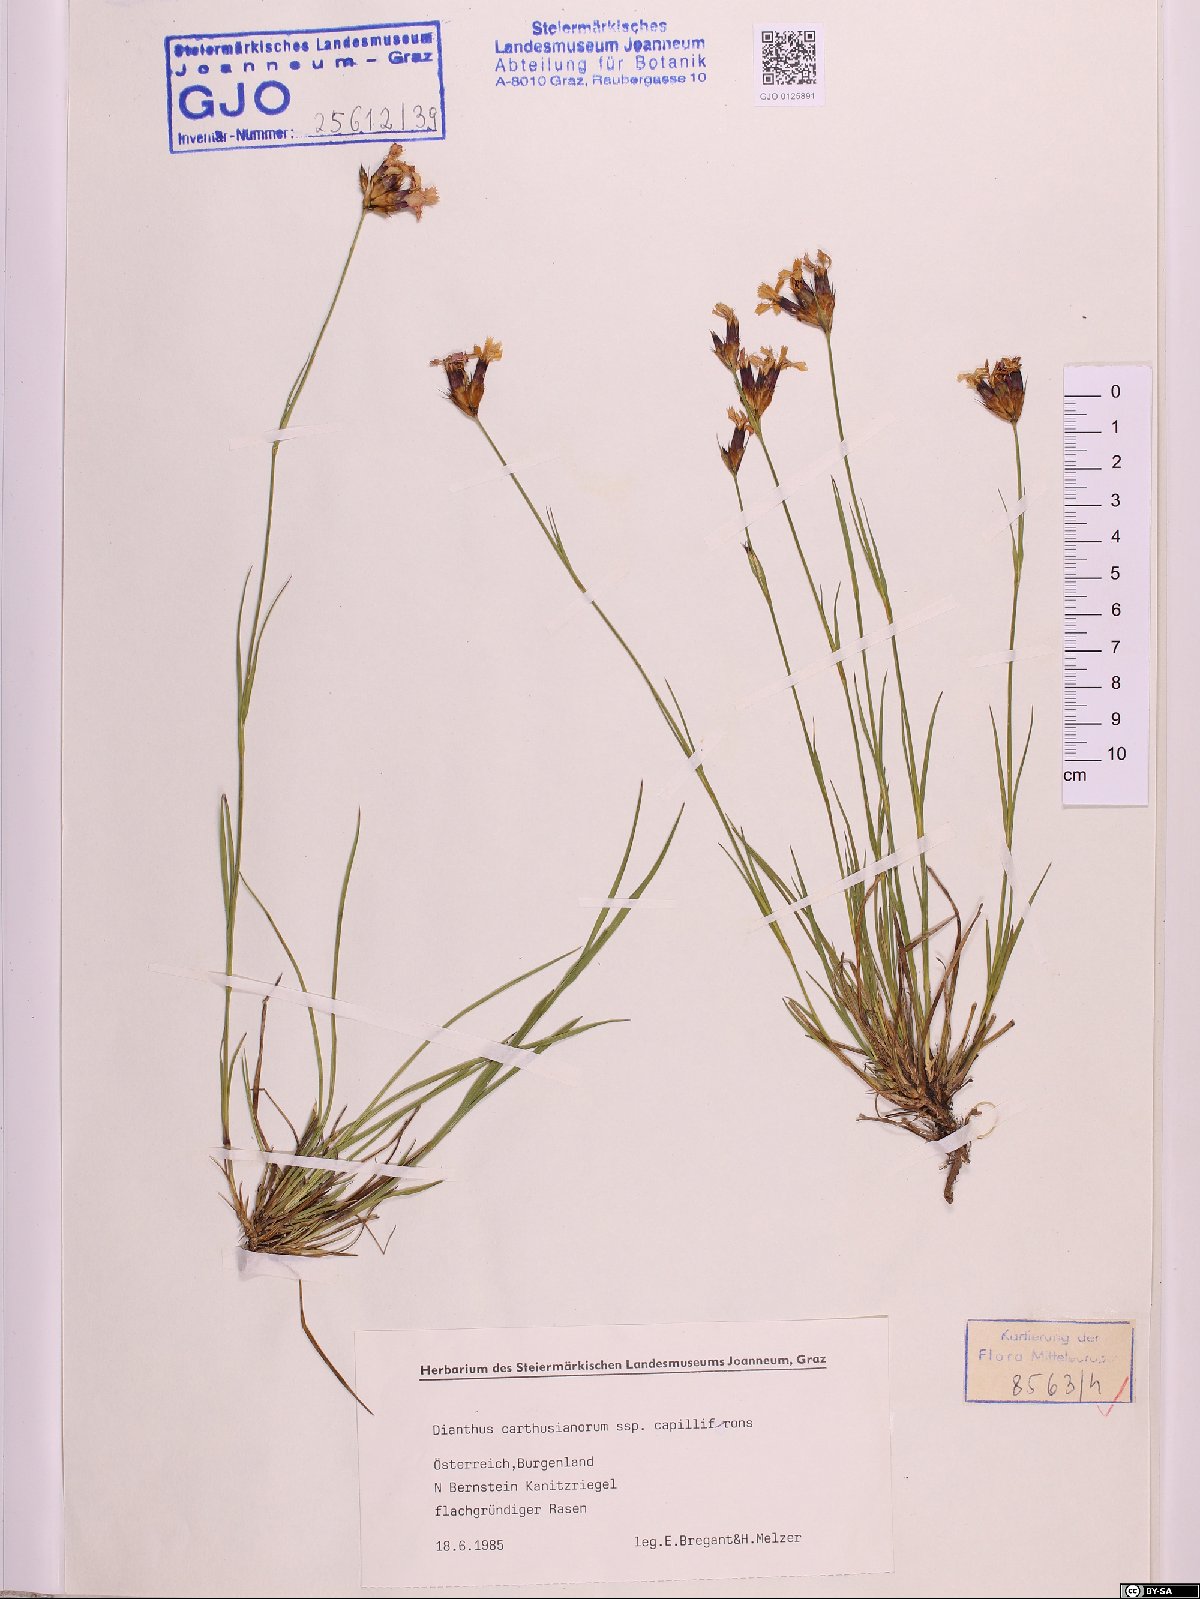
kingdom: Plantae
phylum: Tracheophyta
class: Magnoliopsida
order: Caryophyllales
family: Caryophyllaceae
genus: Dianthus
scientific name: Dianthus carthusianorum
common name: Carthusian pink
